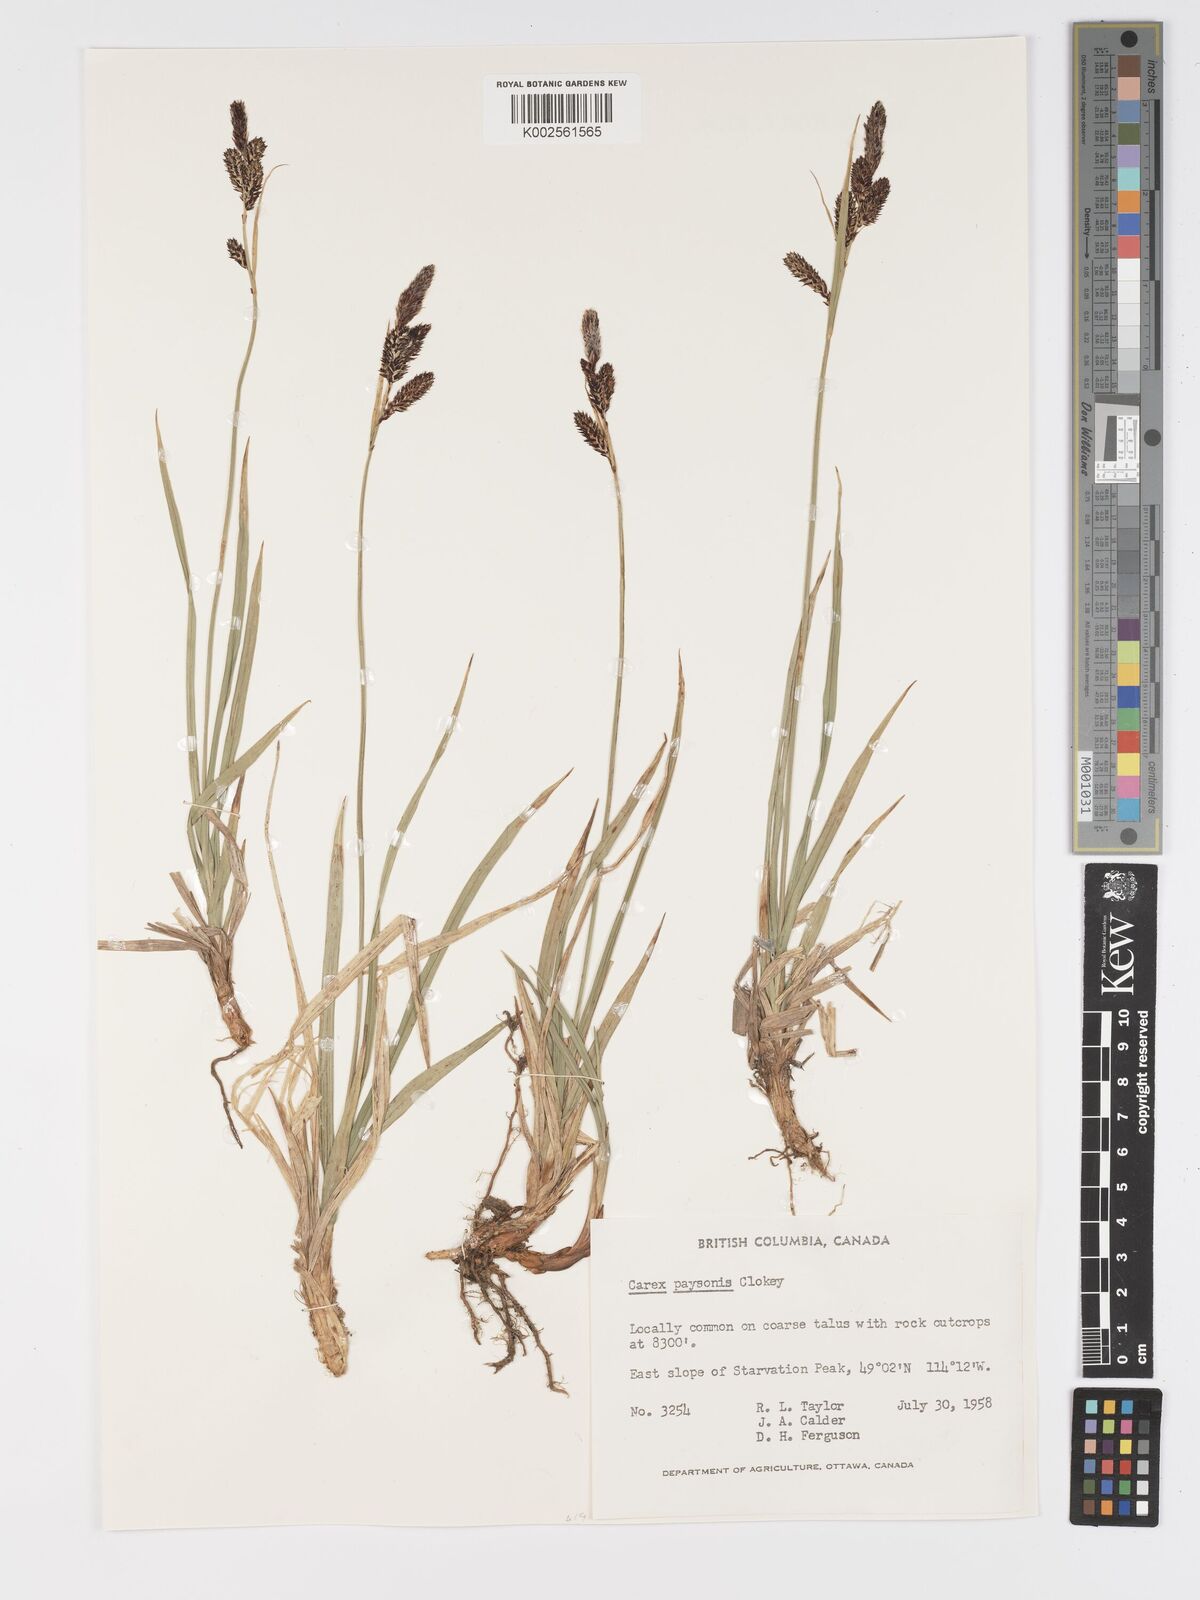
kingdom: Plantae
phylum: Tracheophyta
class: Liliopsida
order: Poales
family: Cyperaceae
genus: Carex
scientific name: Carex podocarpa
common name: Alpine sedge
